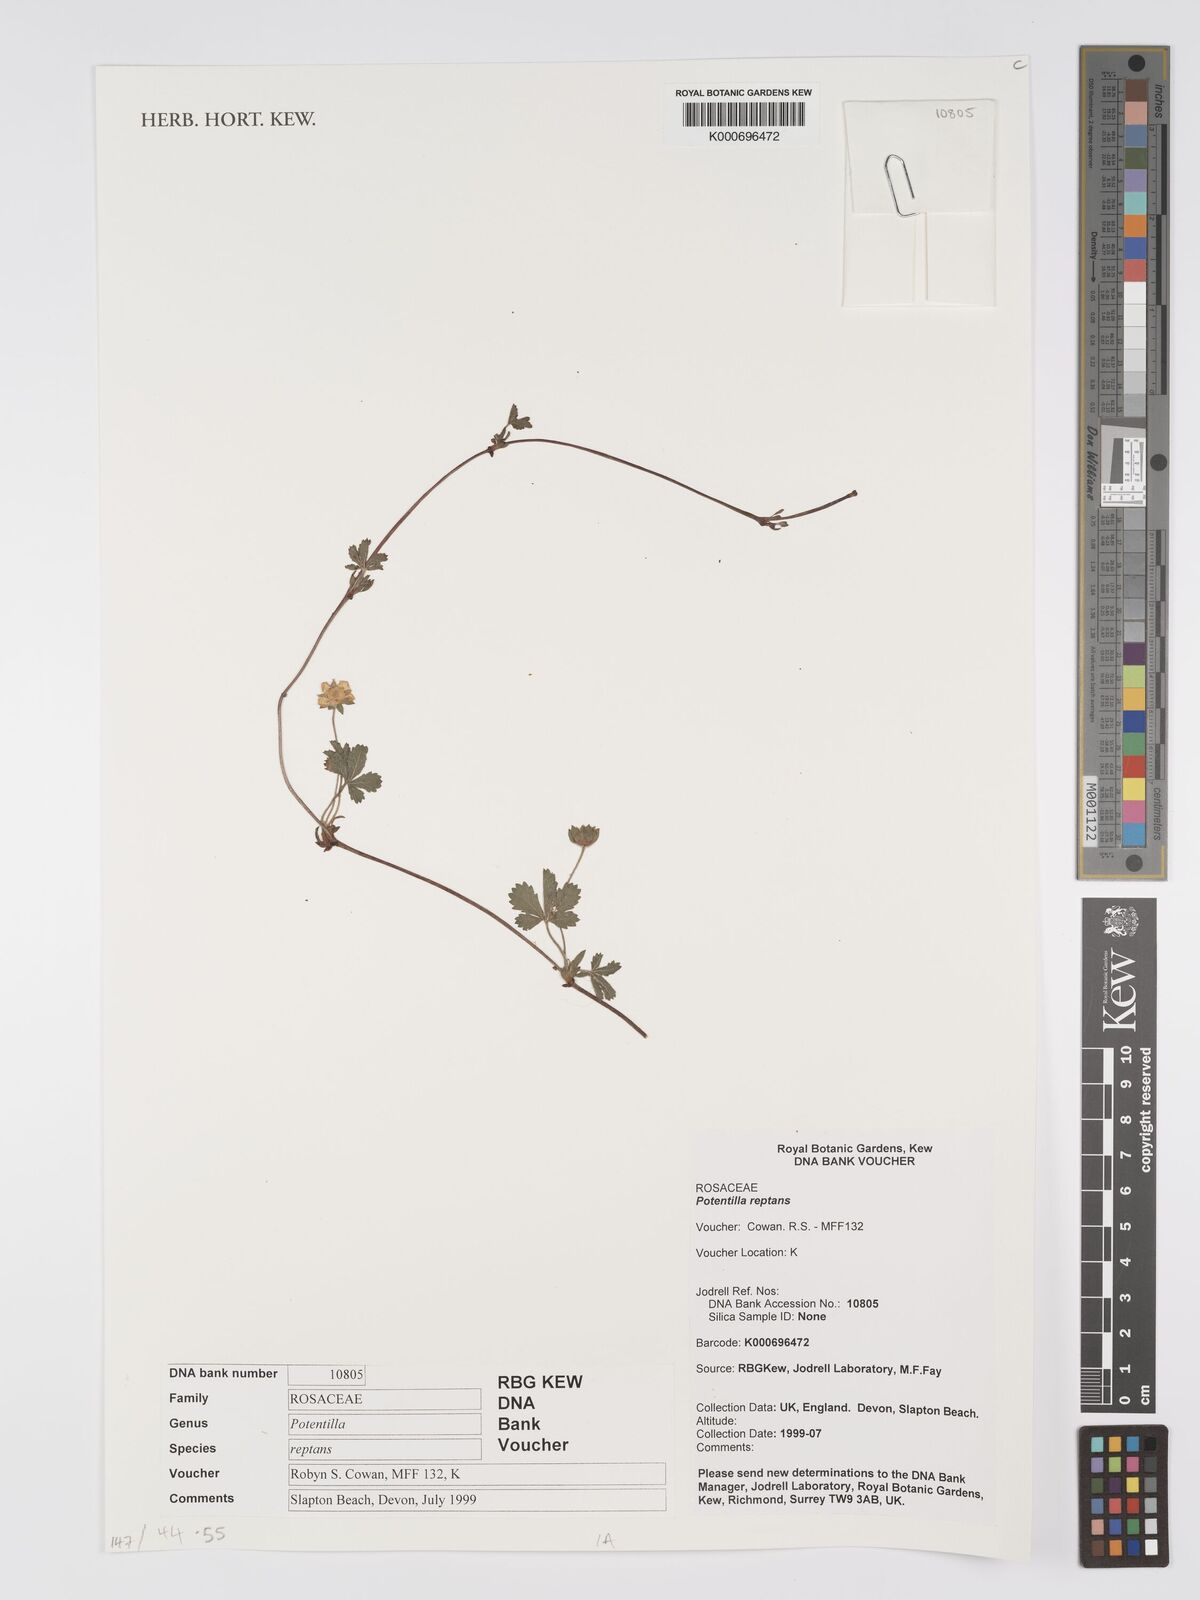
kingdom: Plantae
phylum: Tracheophyta
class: Magnoliopsida
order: Rosales
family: Rosaceae
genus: Potentilla
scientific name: Potentilla reptans
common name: Creeping cinquefoil
